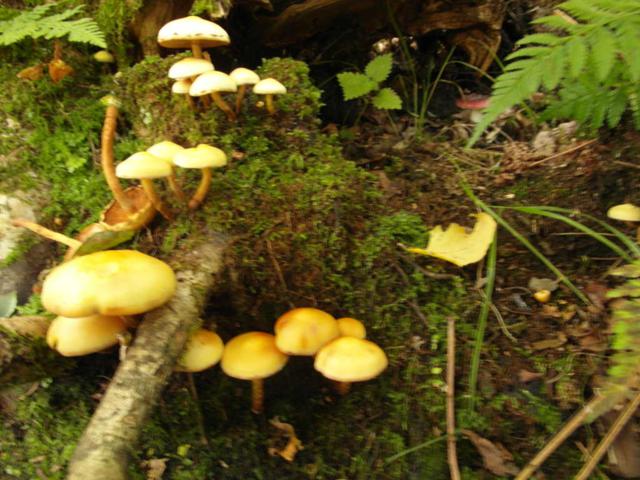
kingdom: Fungi
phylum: Basidiomycota
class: Agaricomycetes
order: Agaricales
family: Hymenogastraceae
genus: Flammula
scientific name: Flammula alnicola
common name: elle-skælhat
